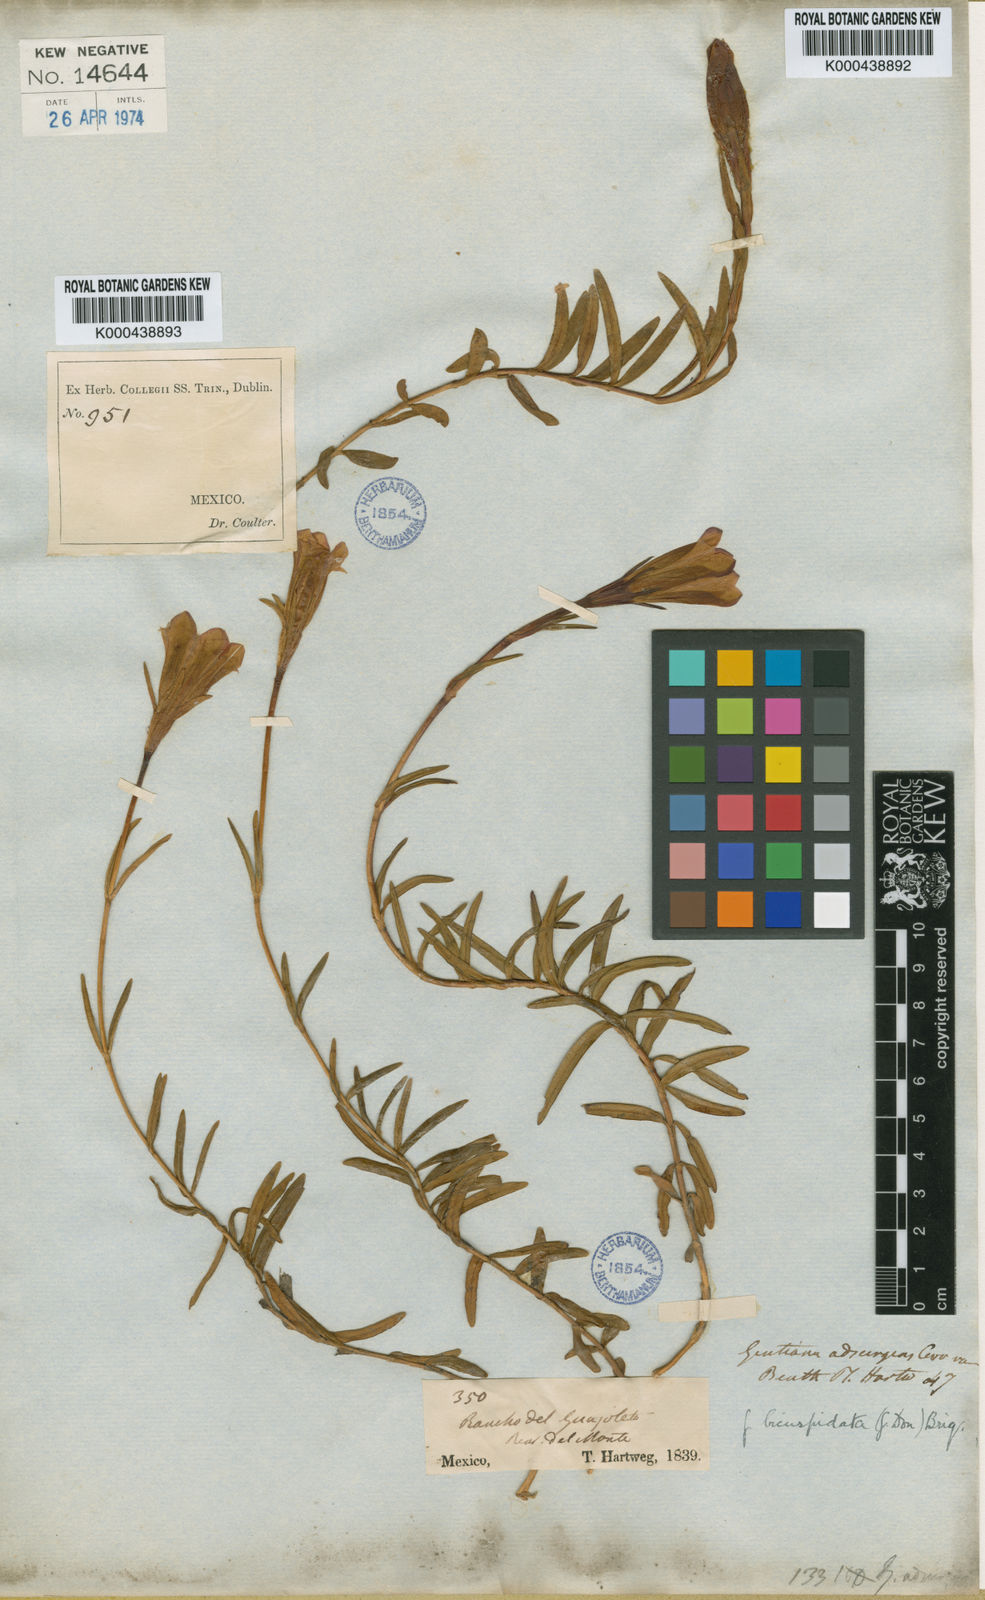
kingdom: Plantae
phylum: Tracheophyta
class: Magnoliopsida
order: Gentianales
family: Gentianaceae
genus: Gentiana
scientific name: Gentiana bicuspidata
